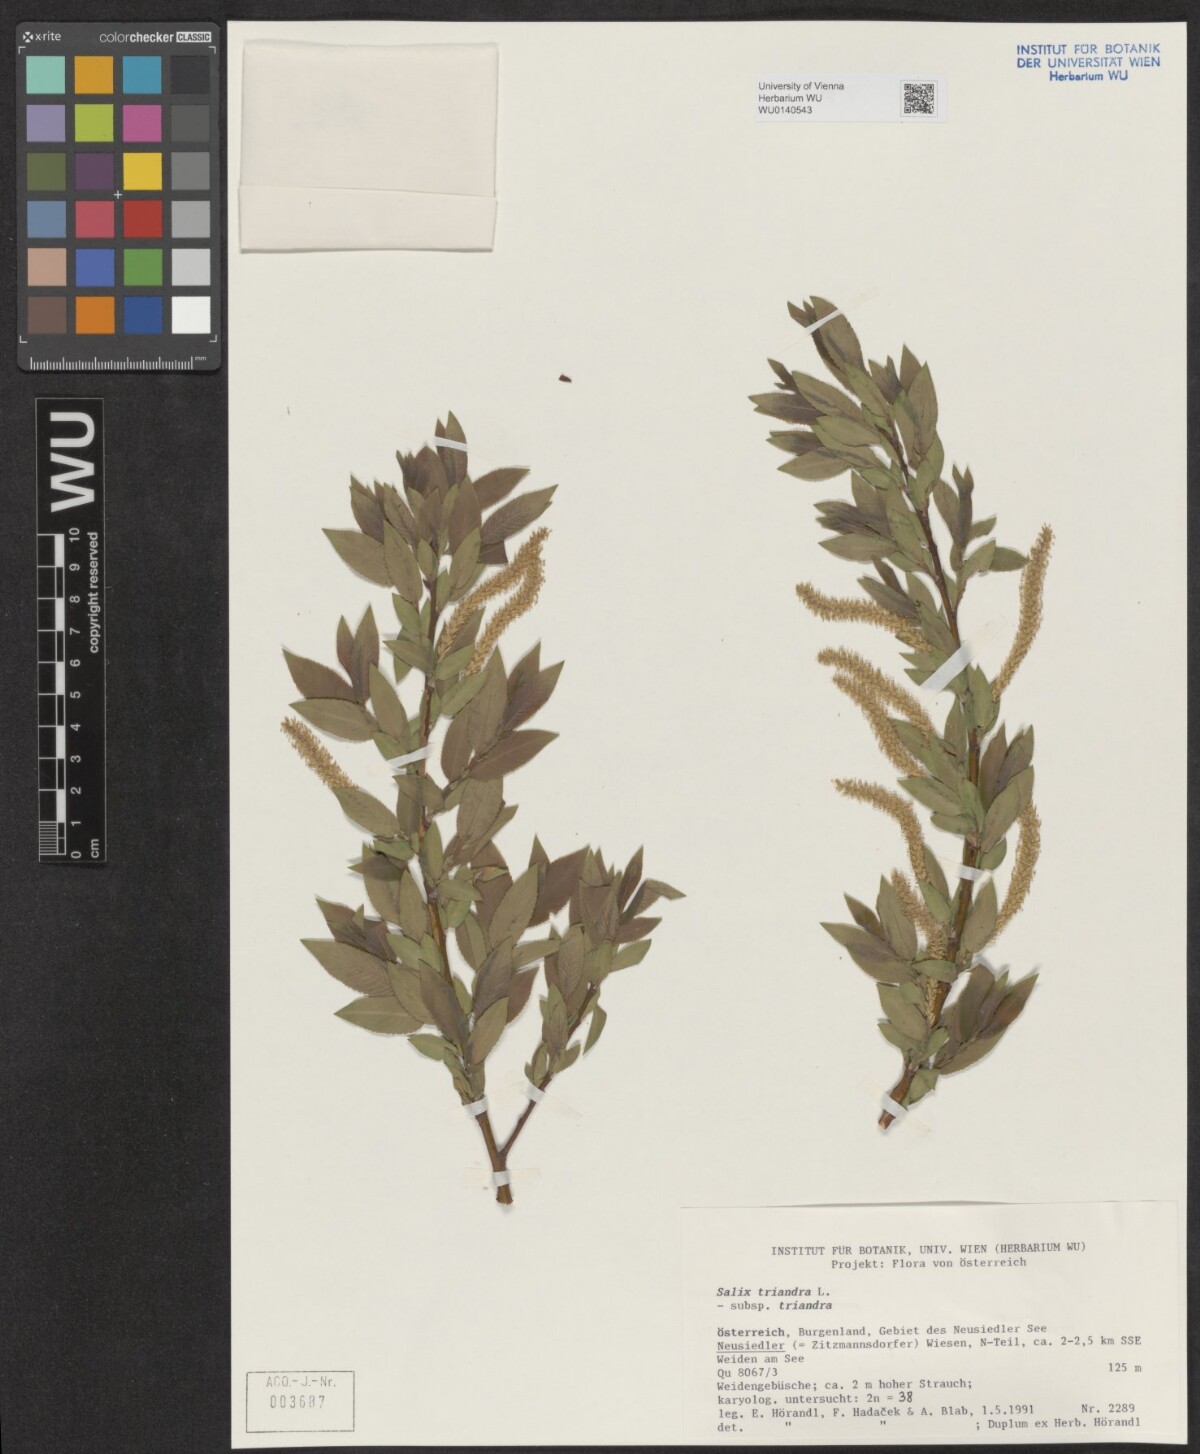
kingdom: Plantae
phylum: Tracheophyta
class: Magnoliopsida
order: Malpighiales
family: Salicaceae
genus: Salix
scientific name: Salix triandra
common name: Almond willow
